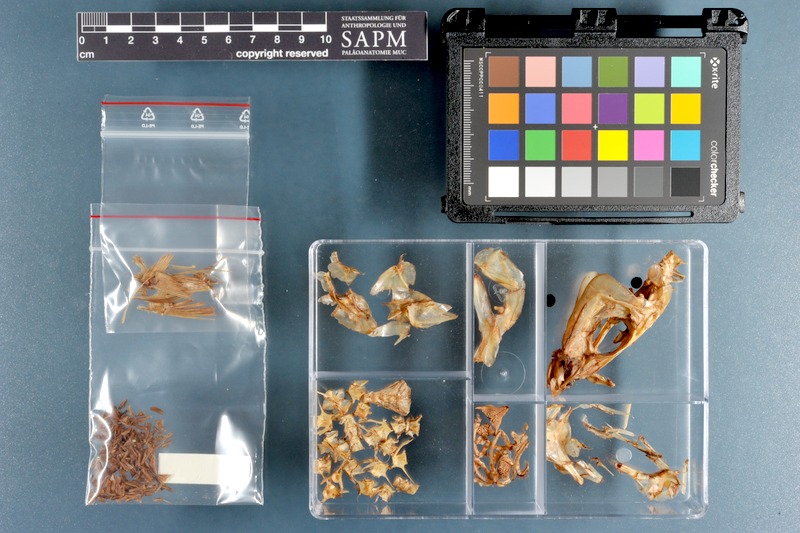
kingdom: Animalia
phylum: Chordata
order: Perciformes
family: Sillaginidae
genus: Sillago
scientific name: Sillago sihama
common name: Silver sillago
